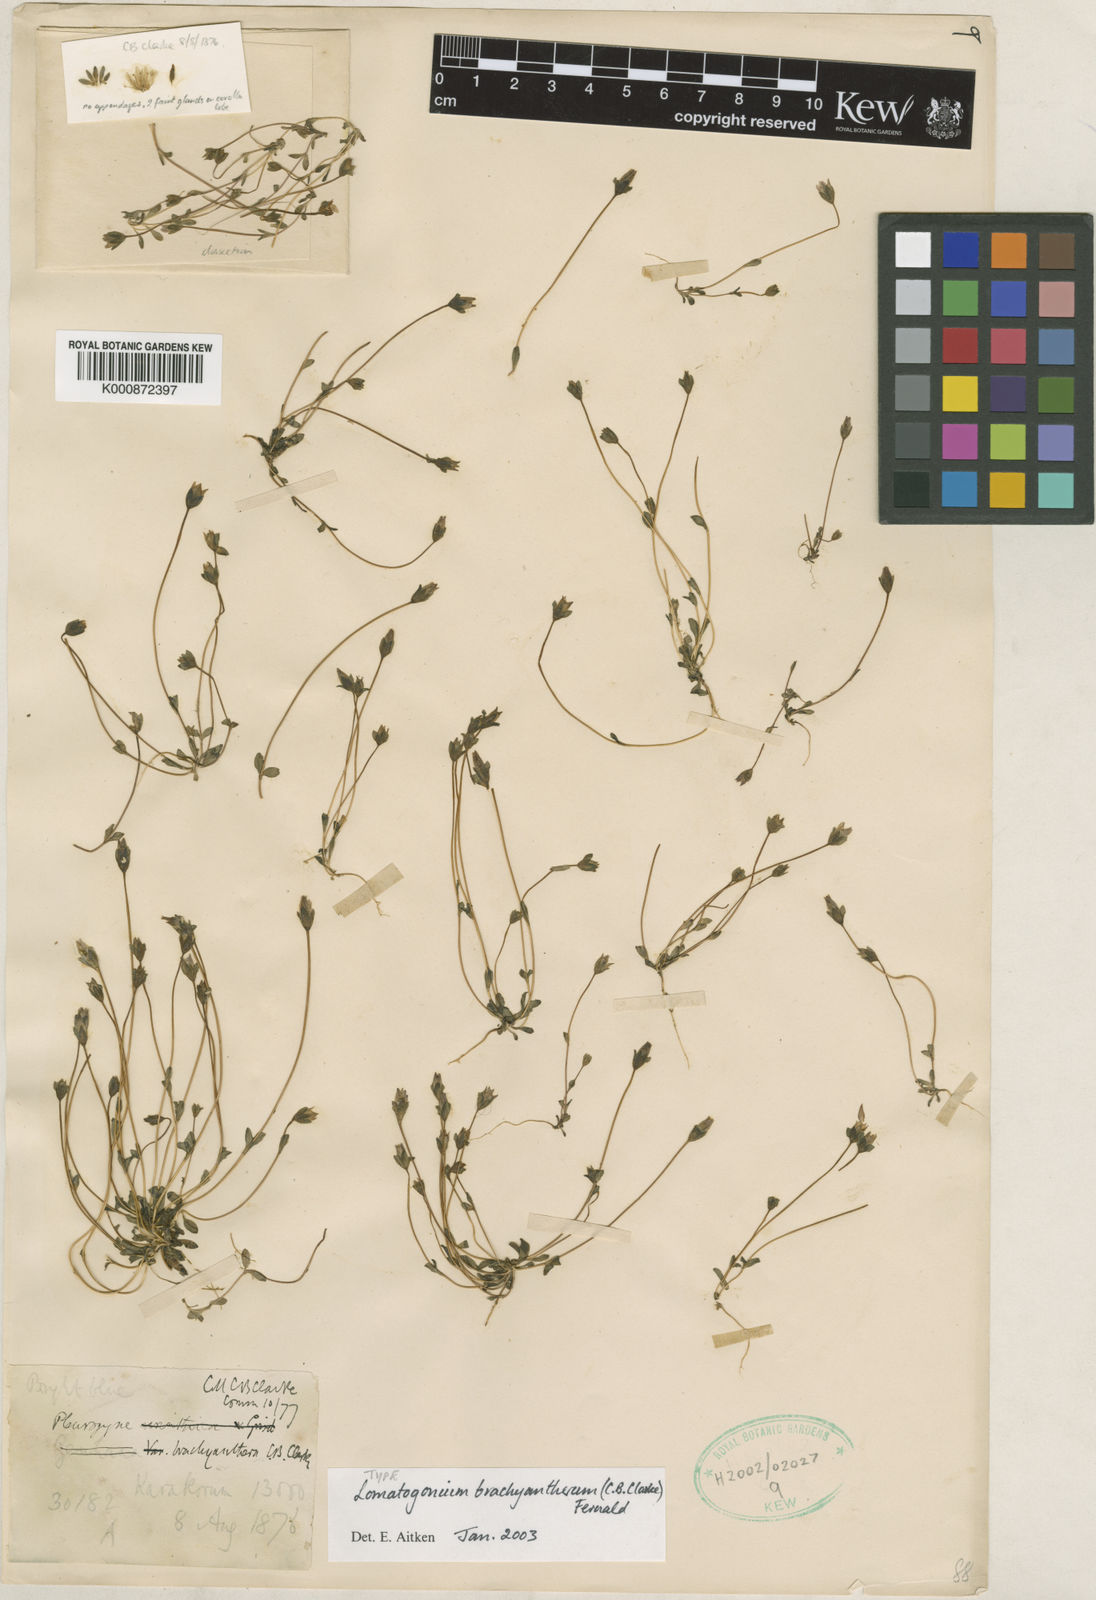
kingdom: Plantae
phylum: Tracheophyta
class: Magnoliopsida
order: Gentianales
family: Gentianaceae
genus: Lomatogonium
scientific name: Lomatogonium
